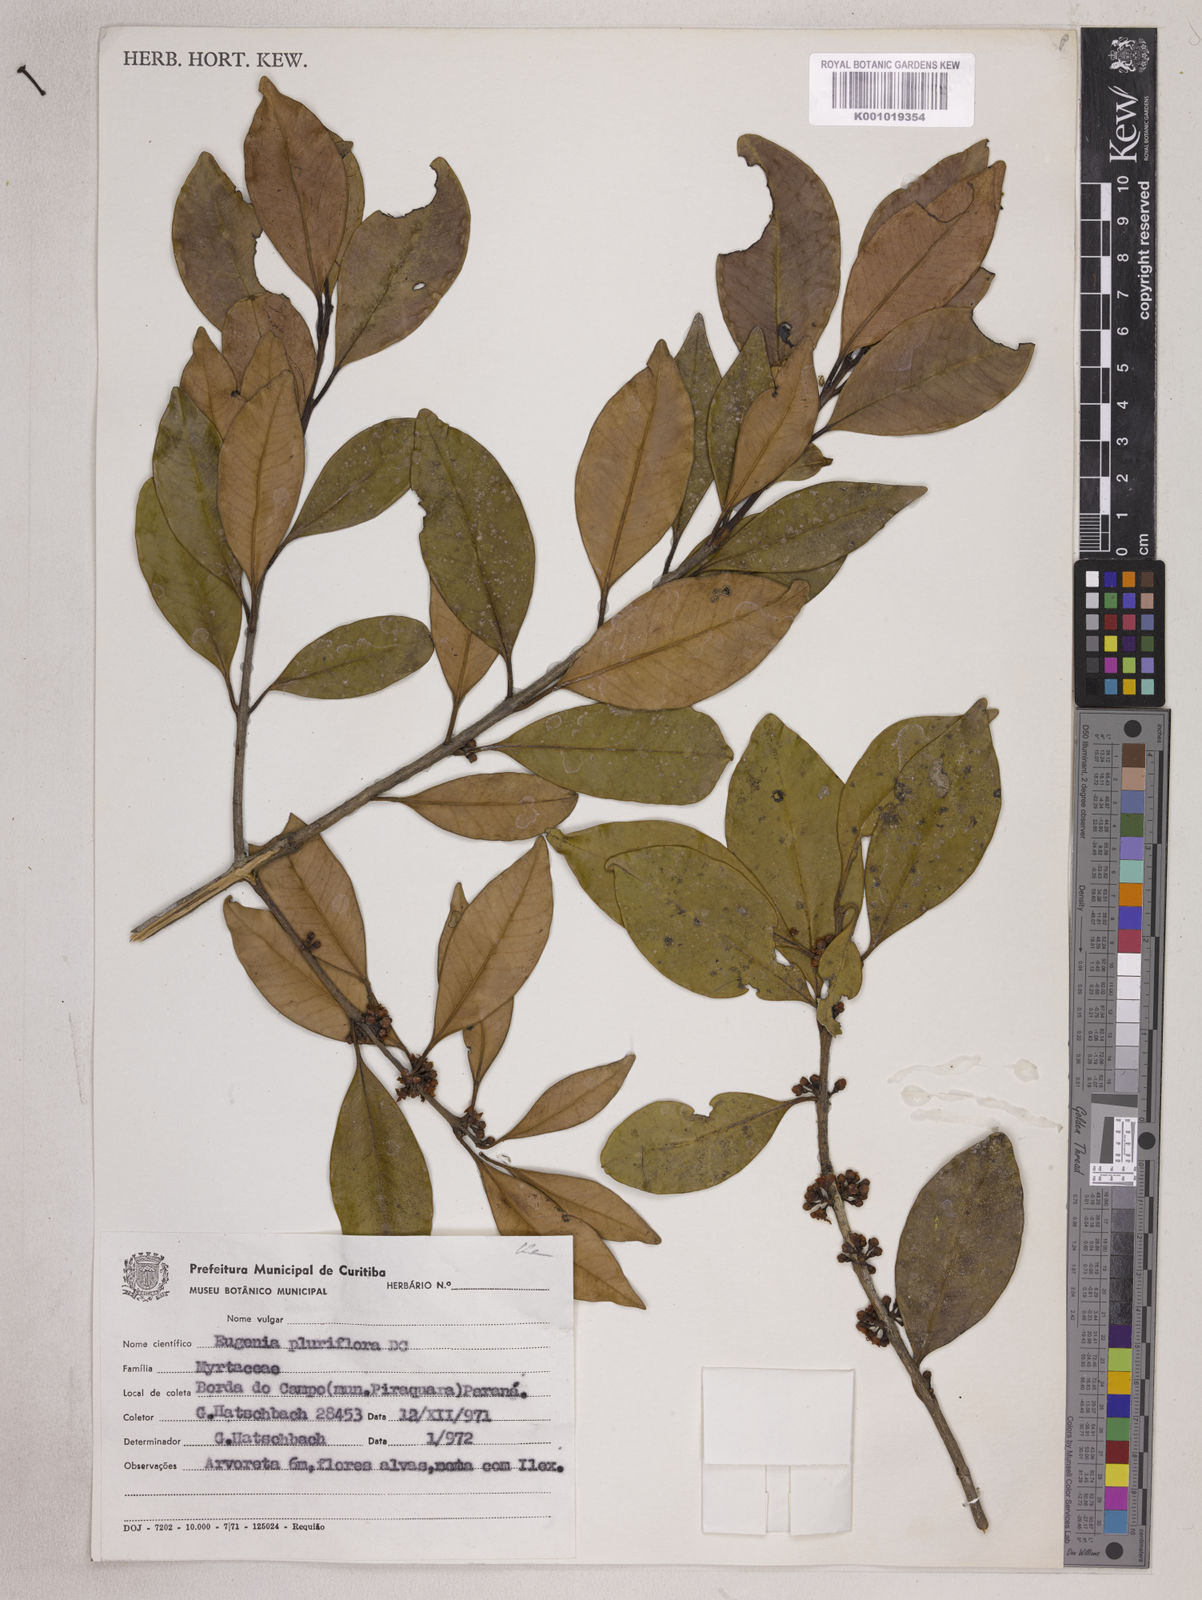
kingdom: Plantae
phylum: Tracheophyta
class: Magnoliopsida
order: Myrtales
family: Myrtaceae
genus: Eugenia
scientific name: Eugenia pluriflora
